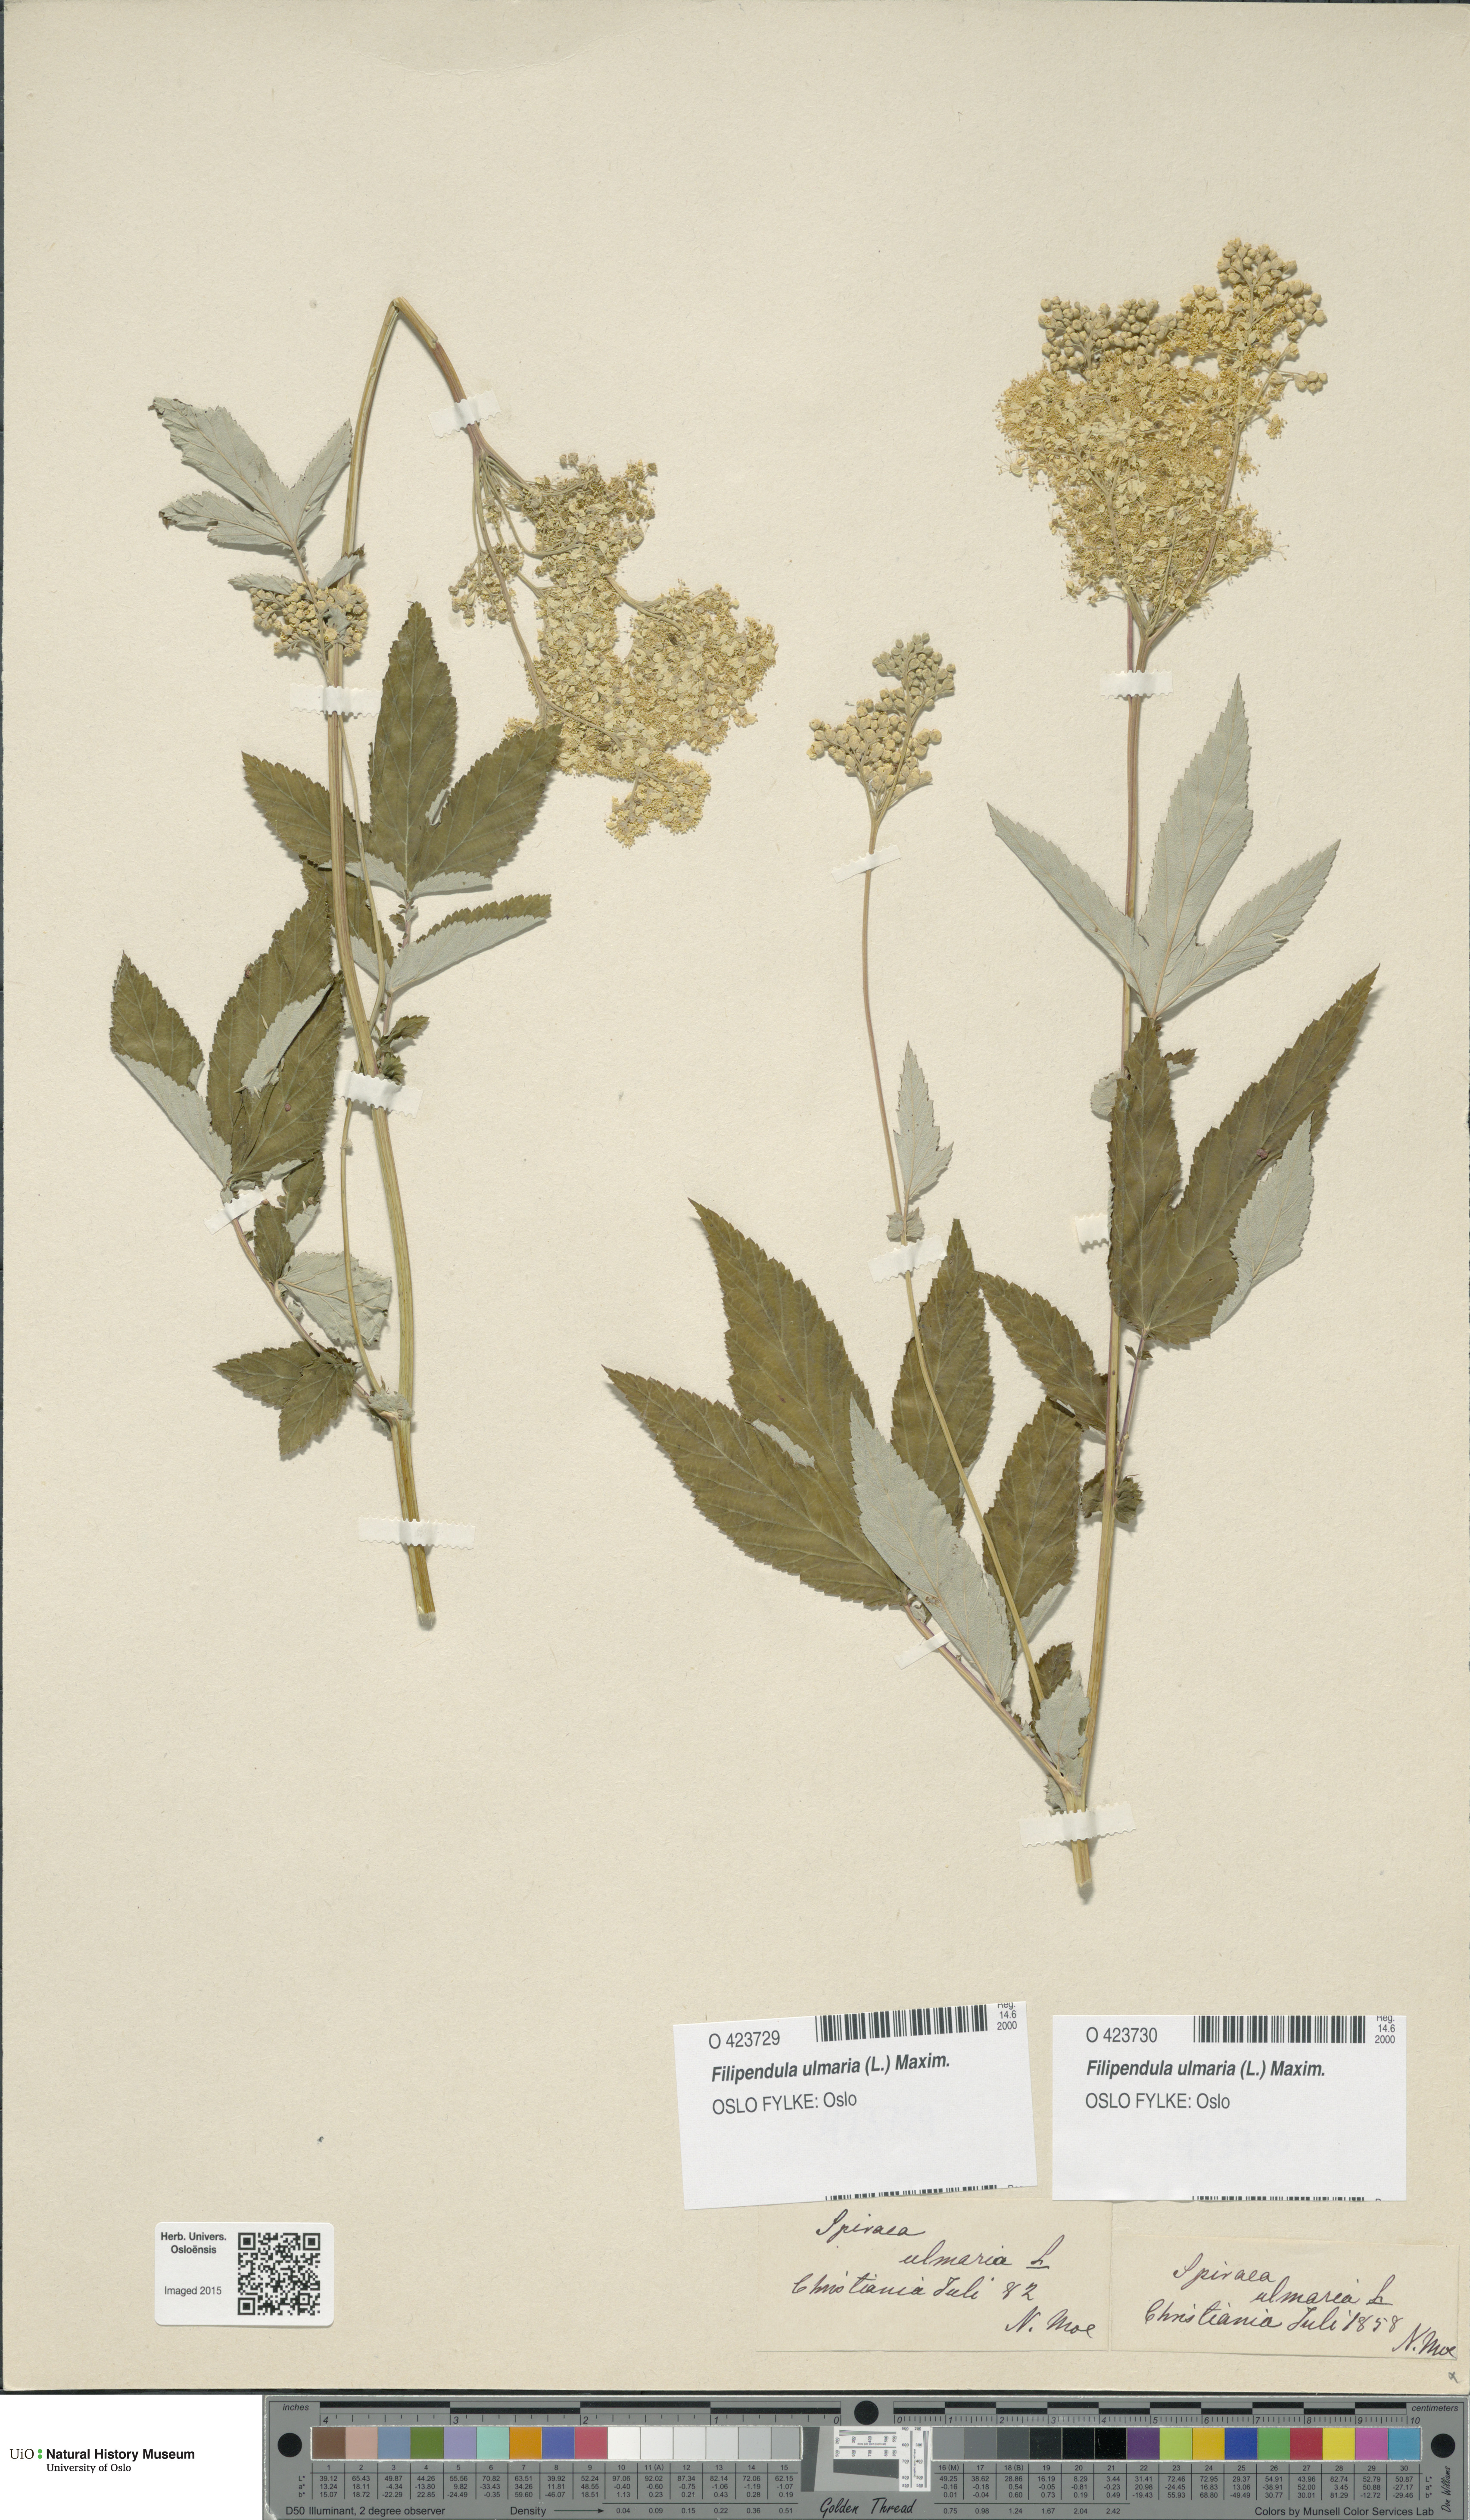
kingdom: Plantae
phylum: Tracheophyta
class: Magnoliopsida
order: Rosales
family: Rosaceae
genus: Filipendula
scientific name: Filipendula ulmaria
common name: Meadowsweet
